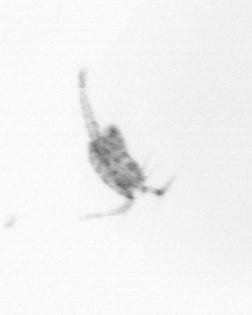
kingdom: Animalia
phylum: Arthropoda
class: Copepoda
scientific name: Copepoda
